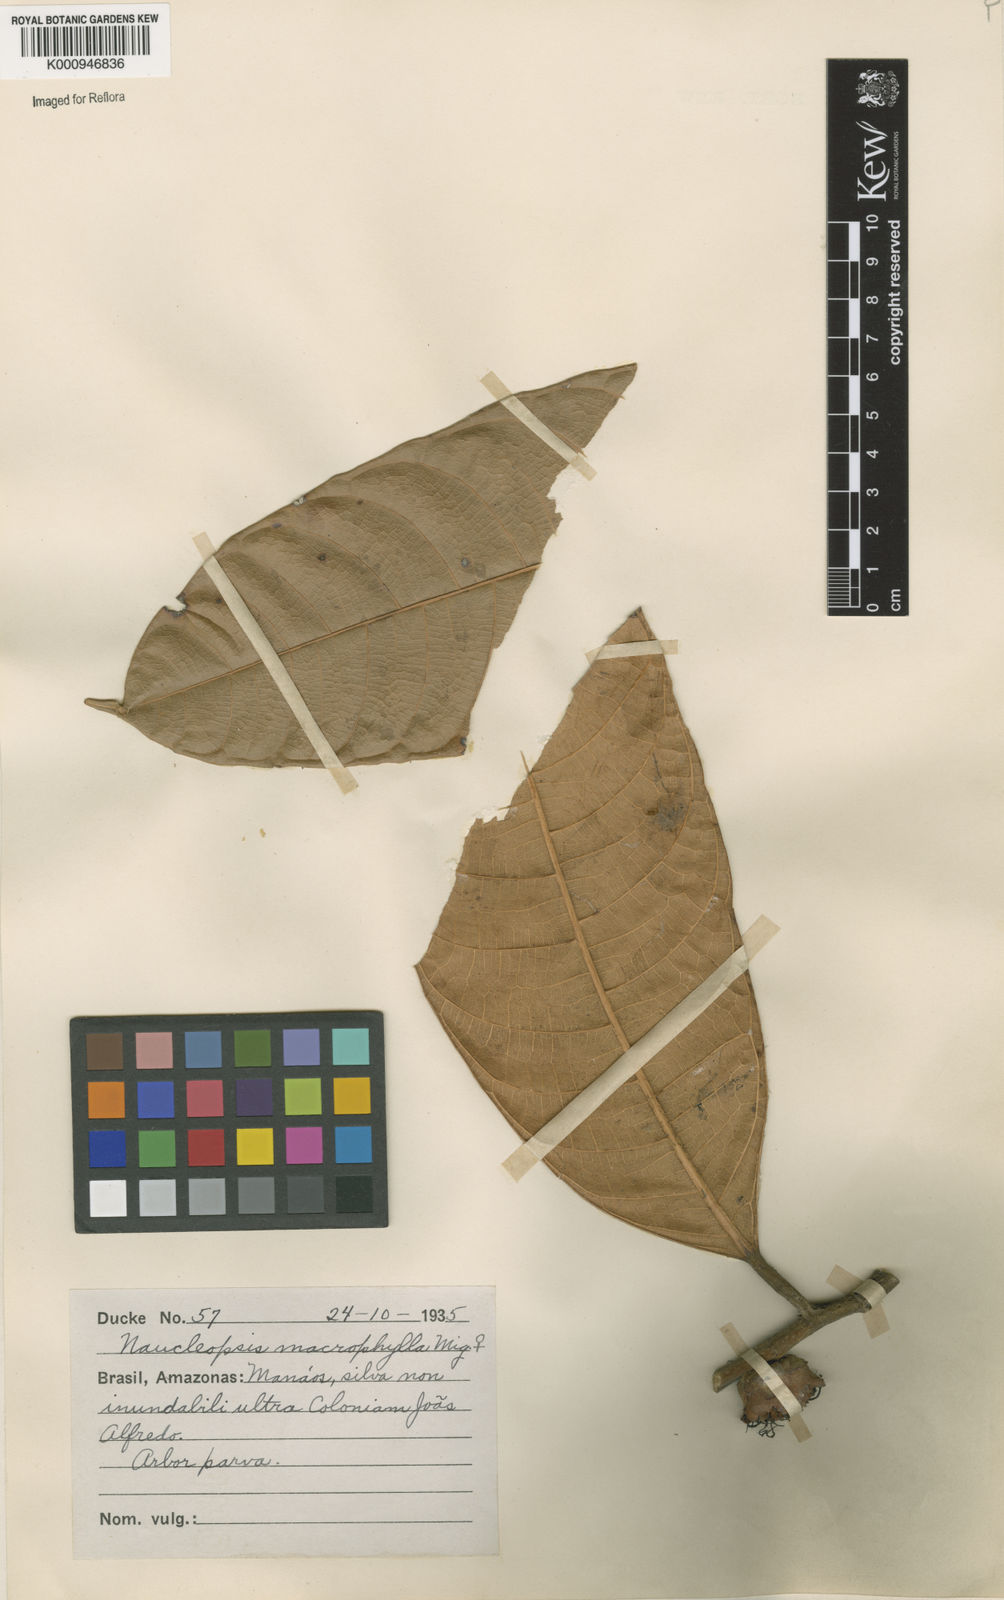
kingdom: Plantae
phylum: Tracheophyta
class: Magnoliopsida
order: Rosales
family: Moraceae
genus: Naucleopsis
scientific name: Naucleopsis macrophylla
